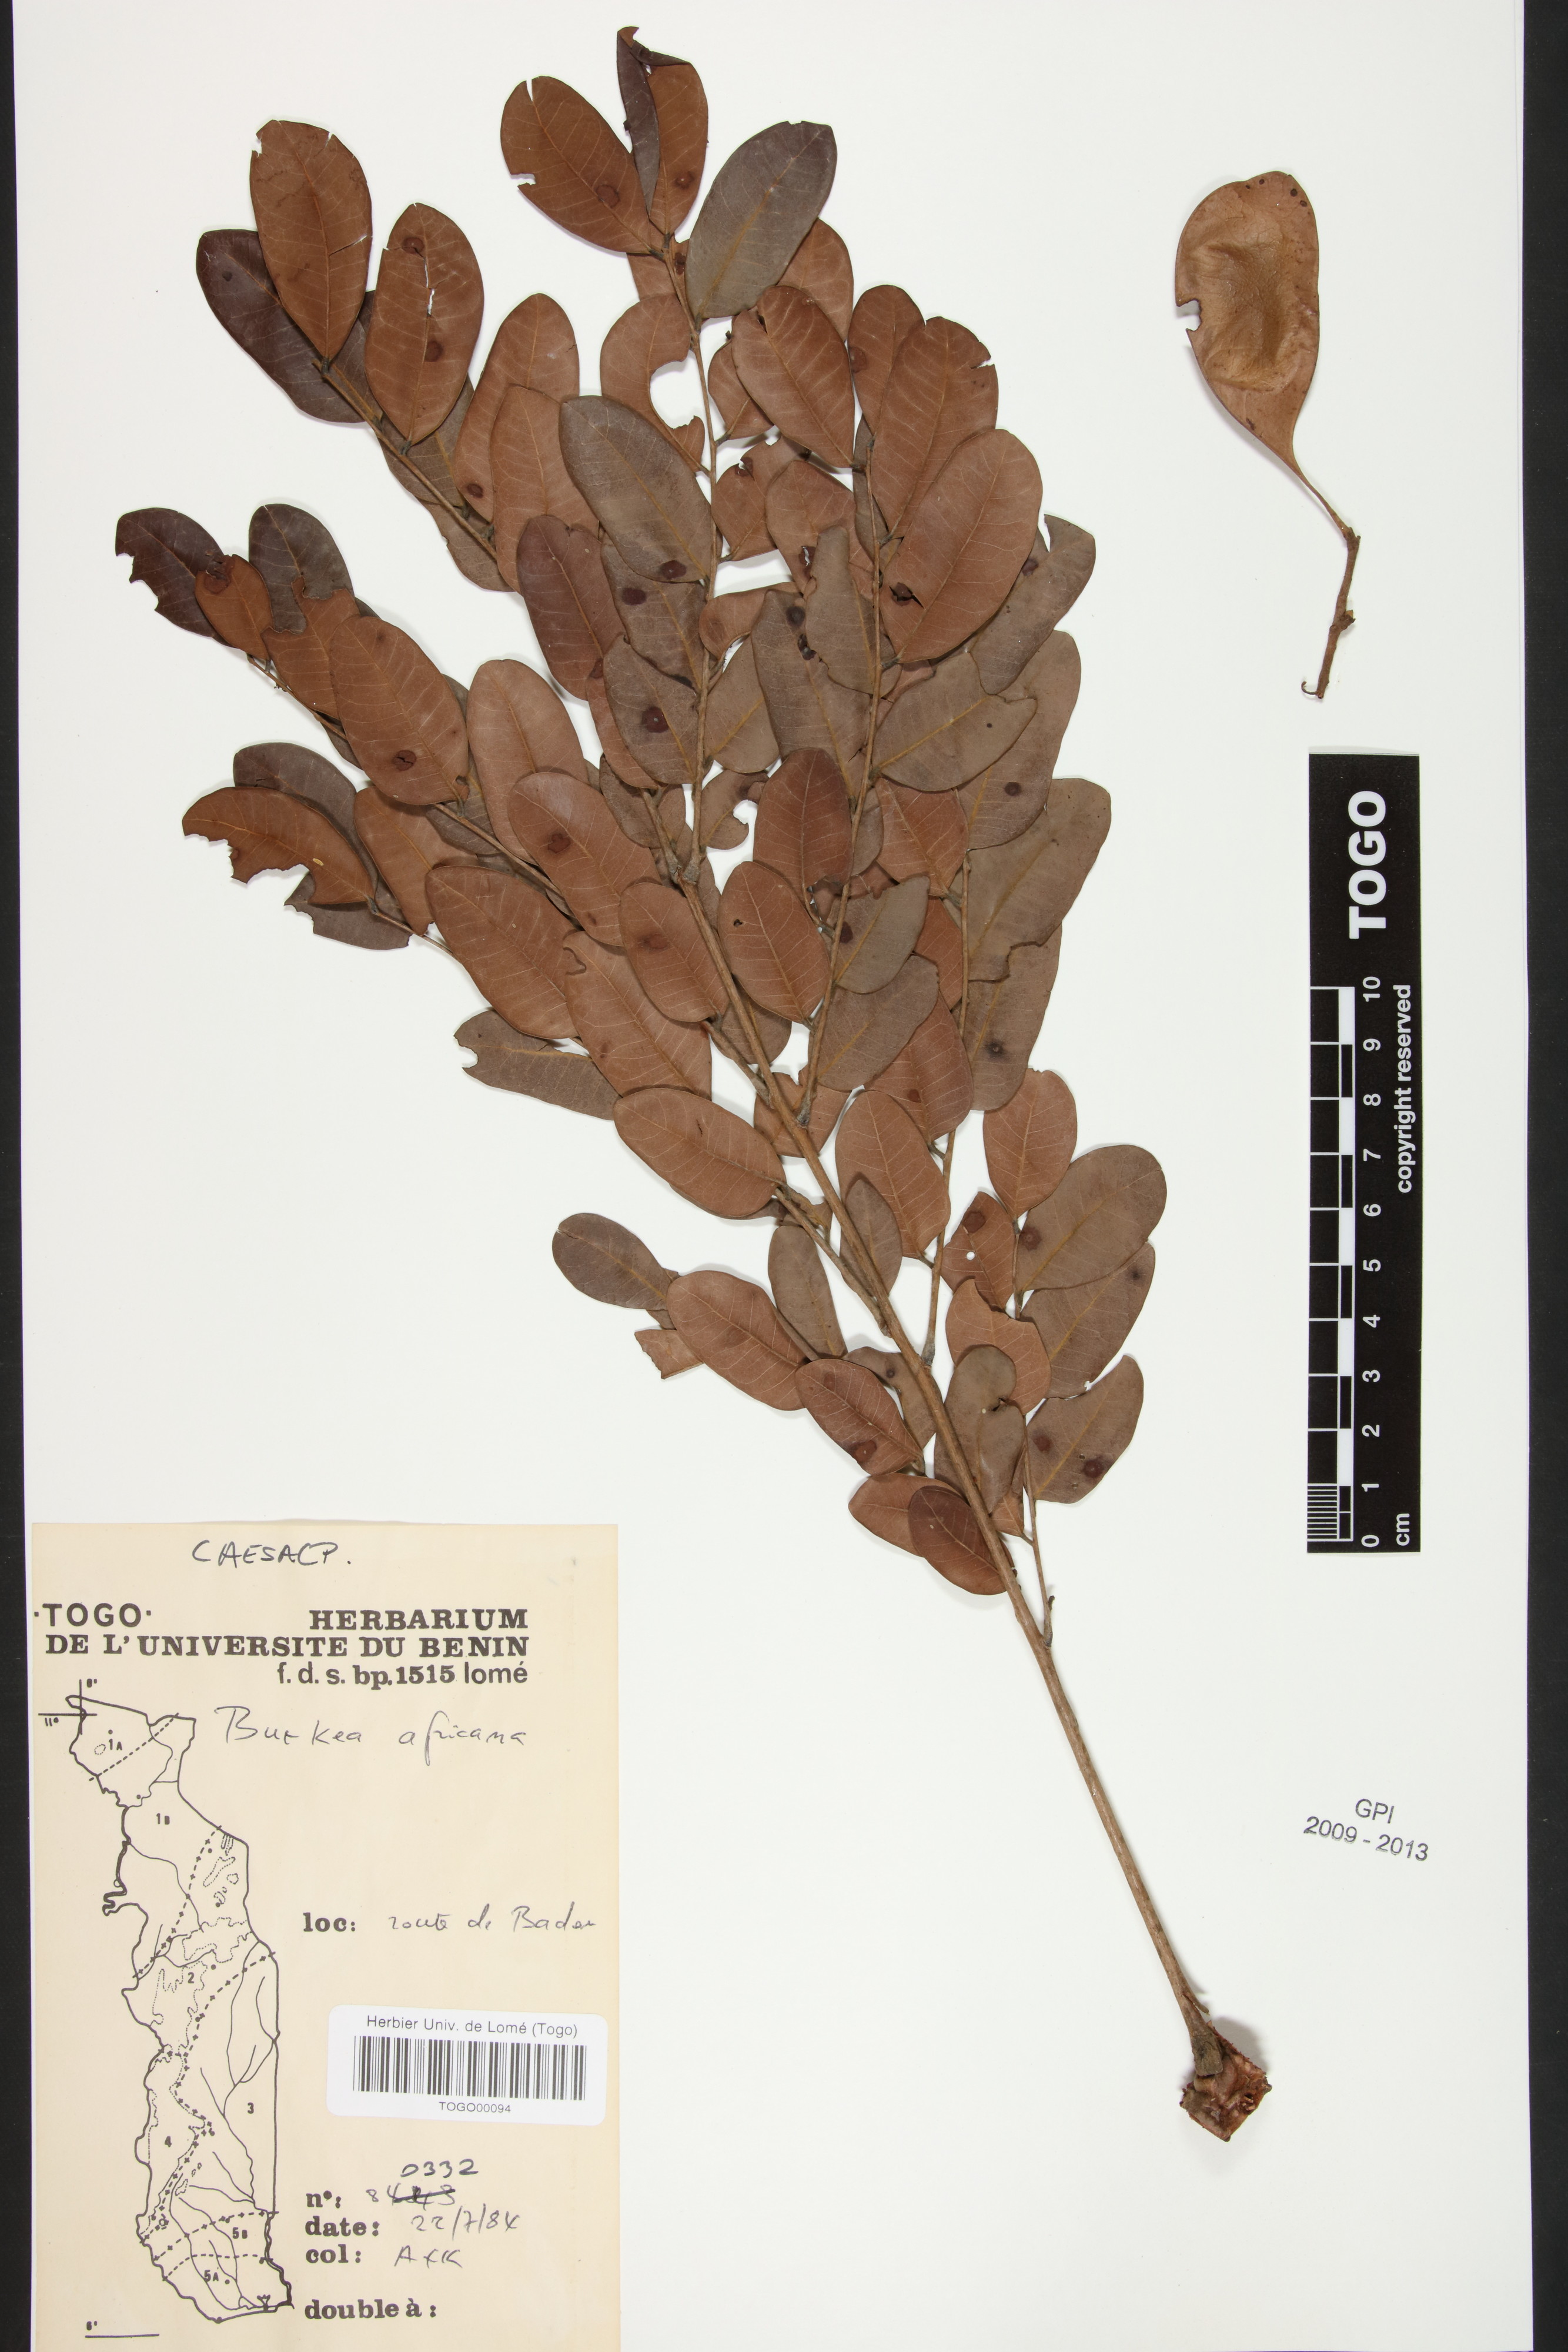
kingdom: Plantae
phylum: Tracheophyta
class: Magnoliopsida
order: Fabales
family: Fabaceae
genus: Burkea
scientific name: Burkea africana
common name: Mkalati tree
